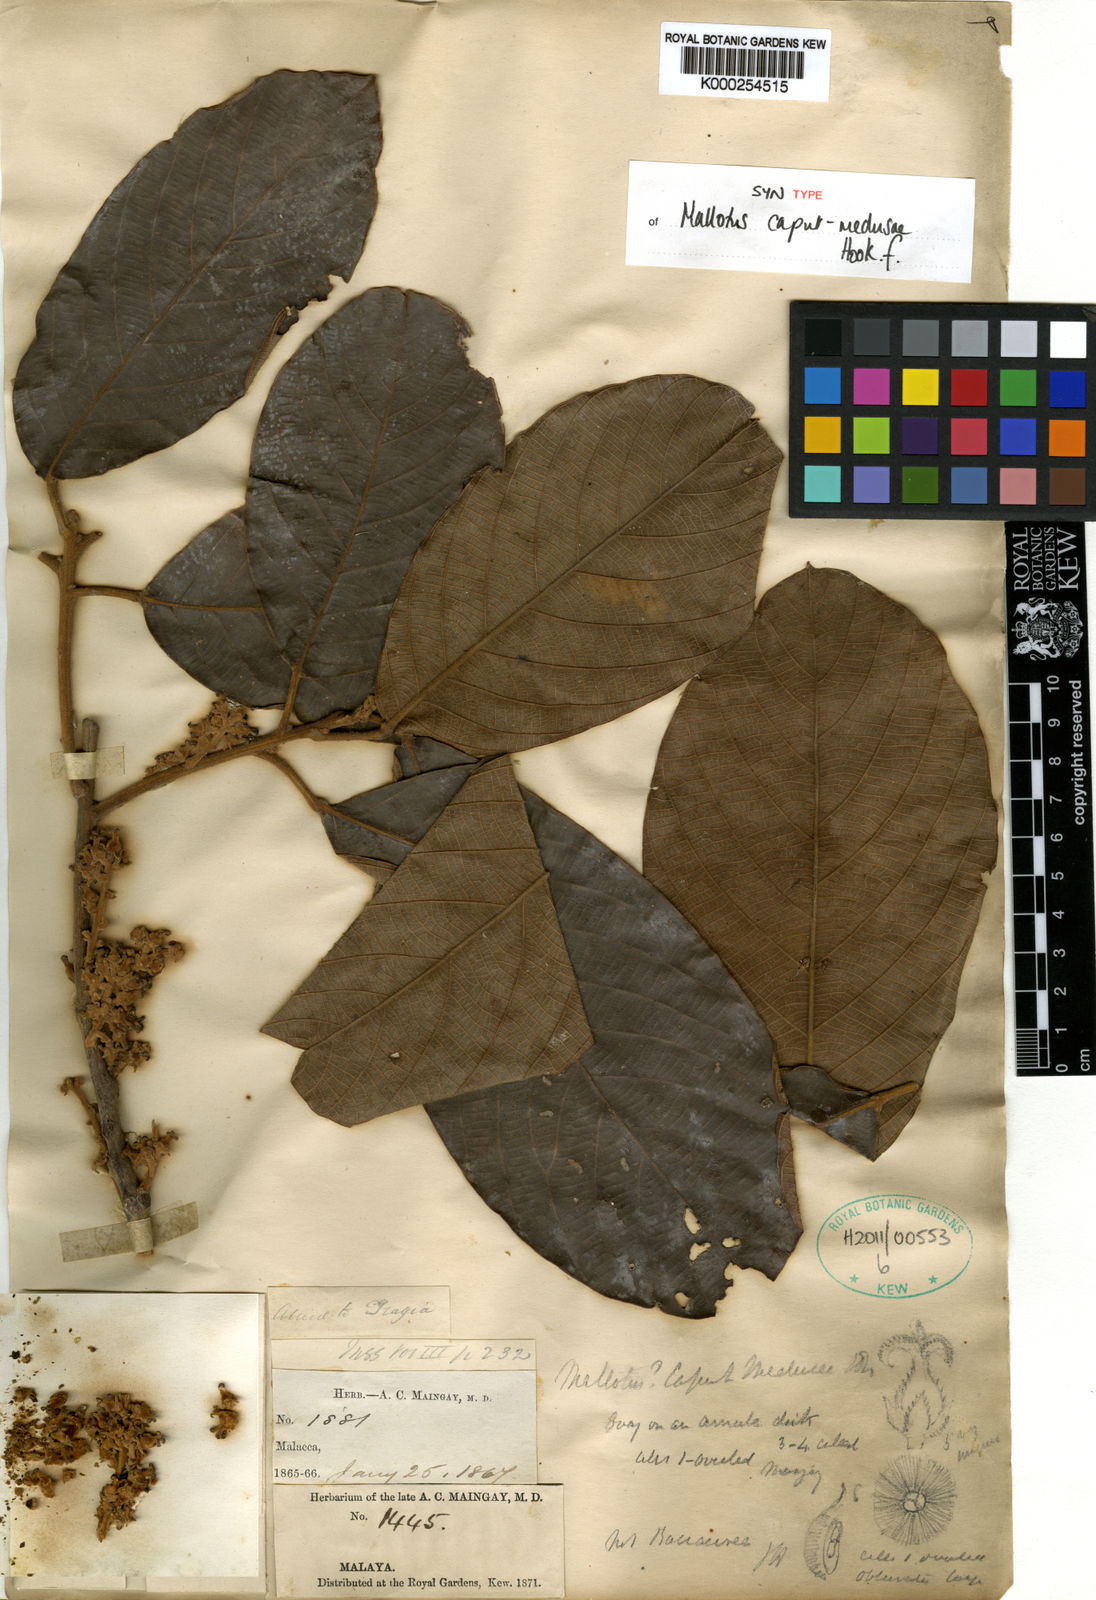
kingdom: Plantae
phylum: Tracheophyta
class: Magnoliopsida
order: Malpighiales
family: Euphorbiaceae
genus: Ptychopyxis
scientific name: Ptychopyxis caput-medusae
